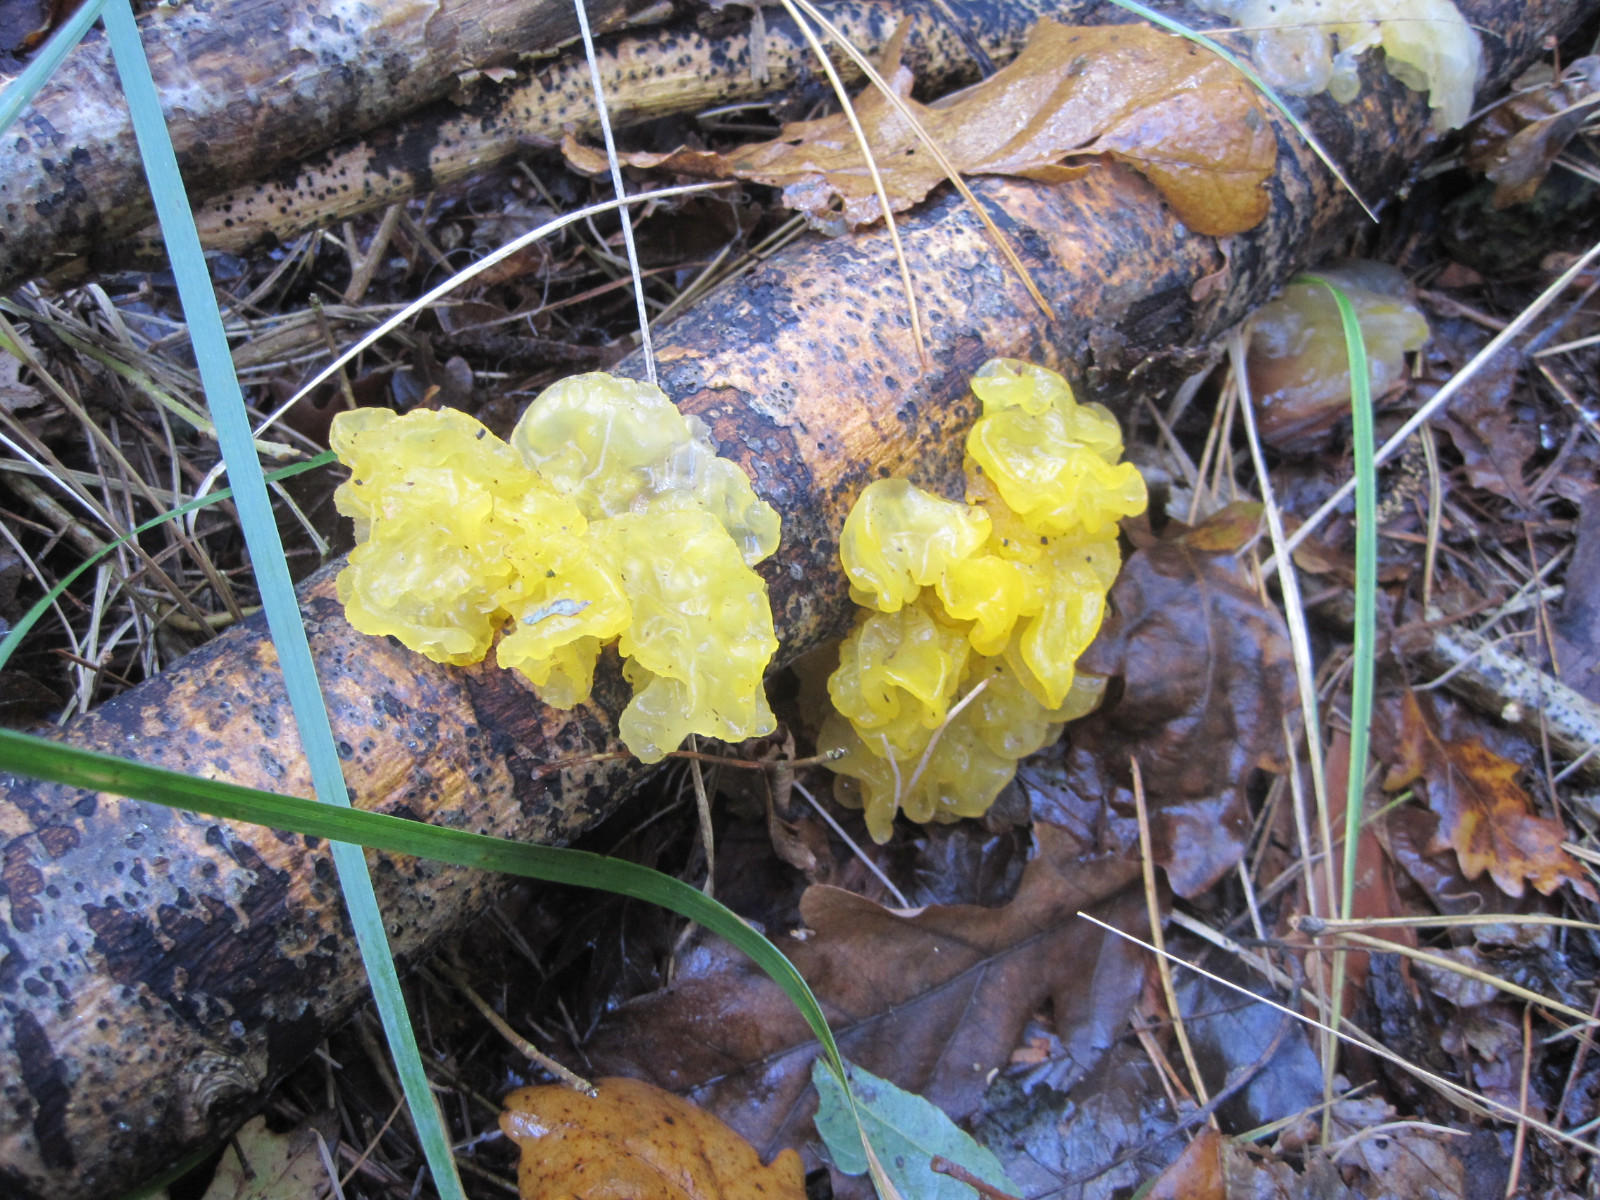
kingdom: Fungi
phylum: Basidiomycota
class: Tremellomycetes
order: Tremellales
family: Tremellaceae
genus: Tremella
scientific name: Tremella mesenterica
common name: gul bævresvamp
